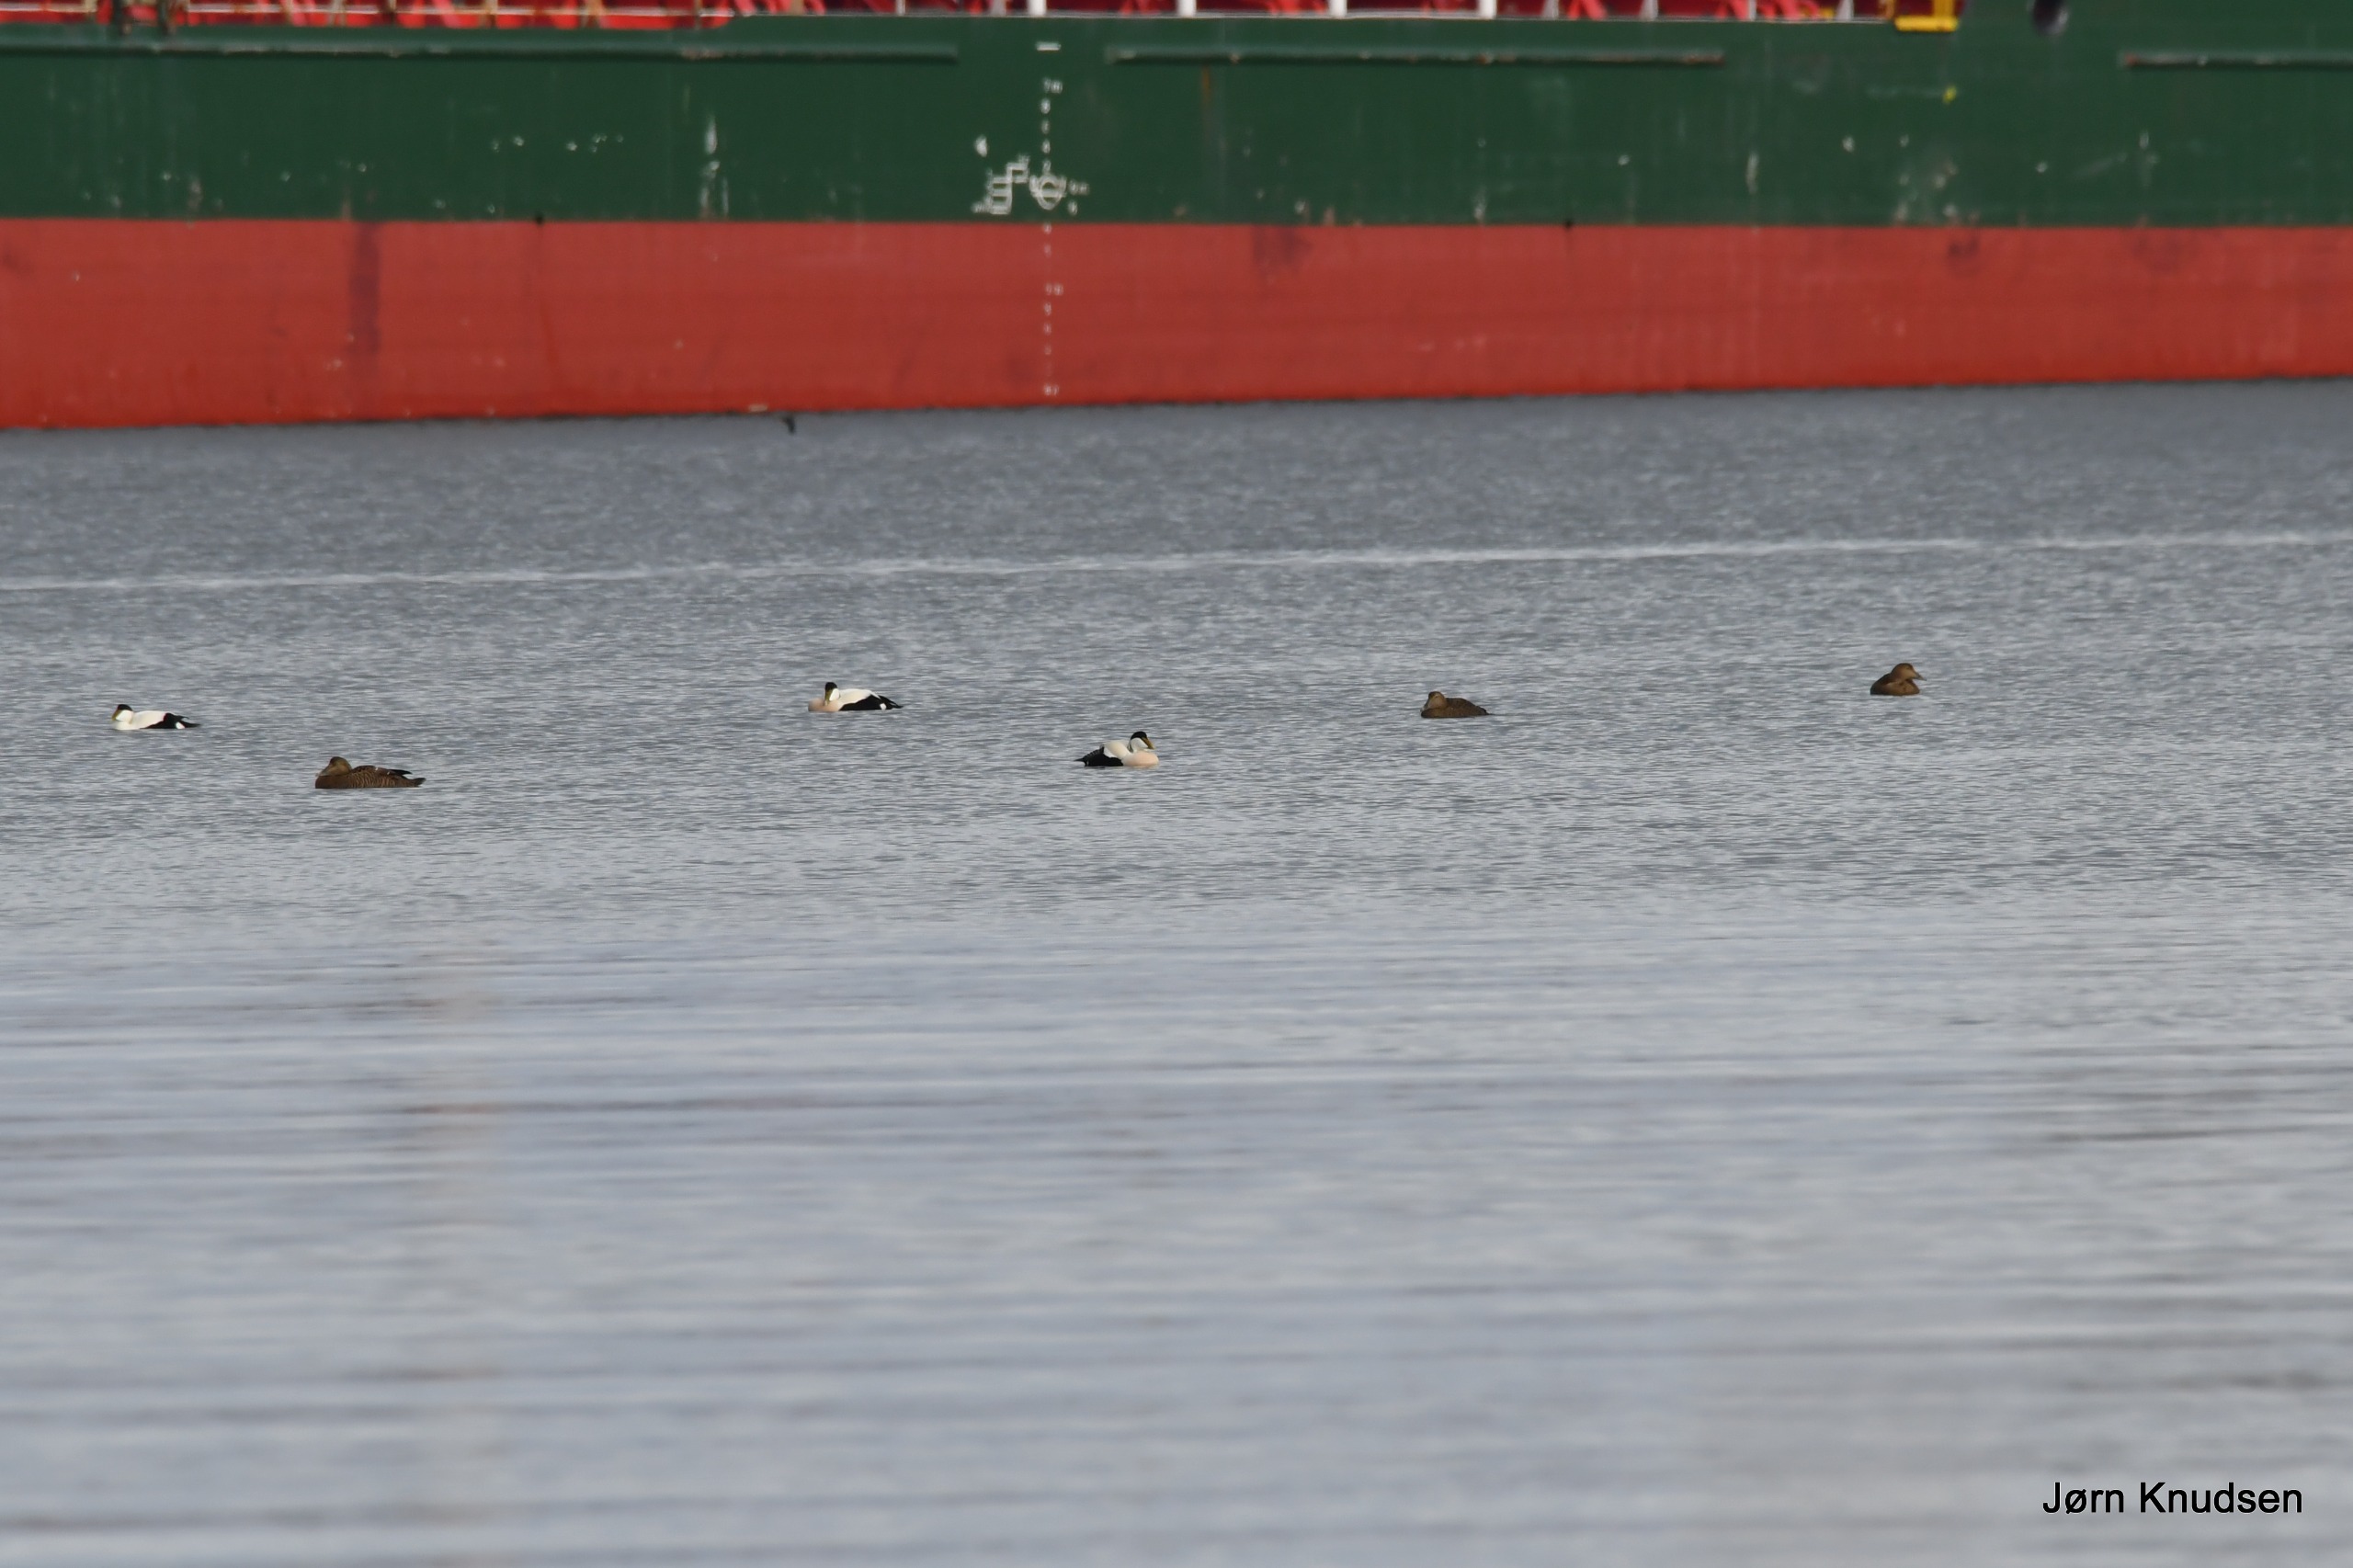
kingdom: Animalia
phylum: Chordata
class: Aves
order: Anseriformes
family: Anatidae
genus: Somateria
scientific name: Somateria mollissima
